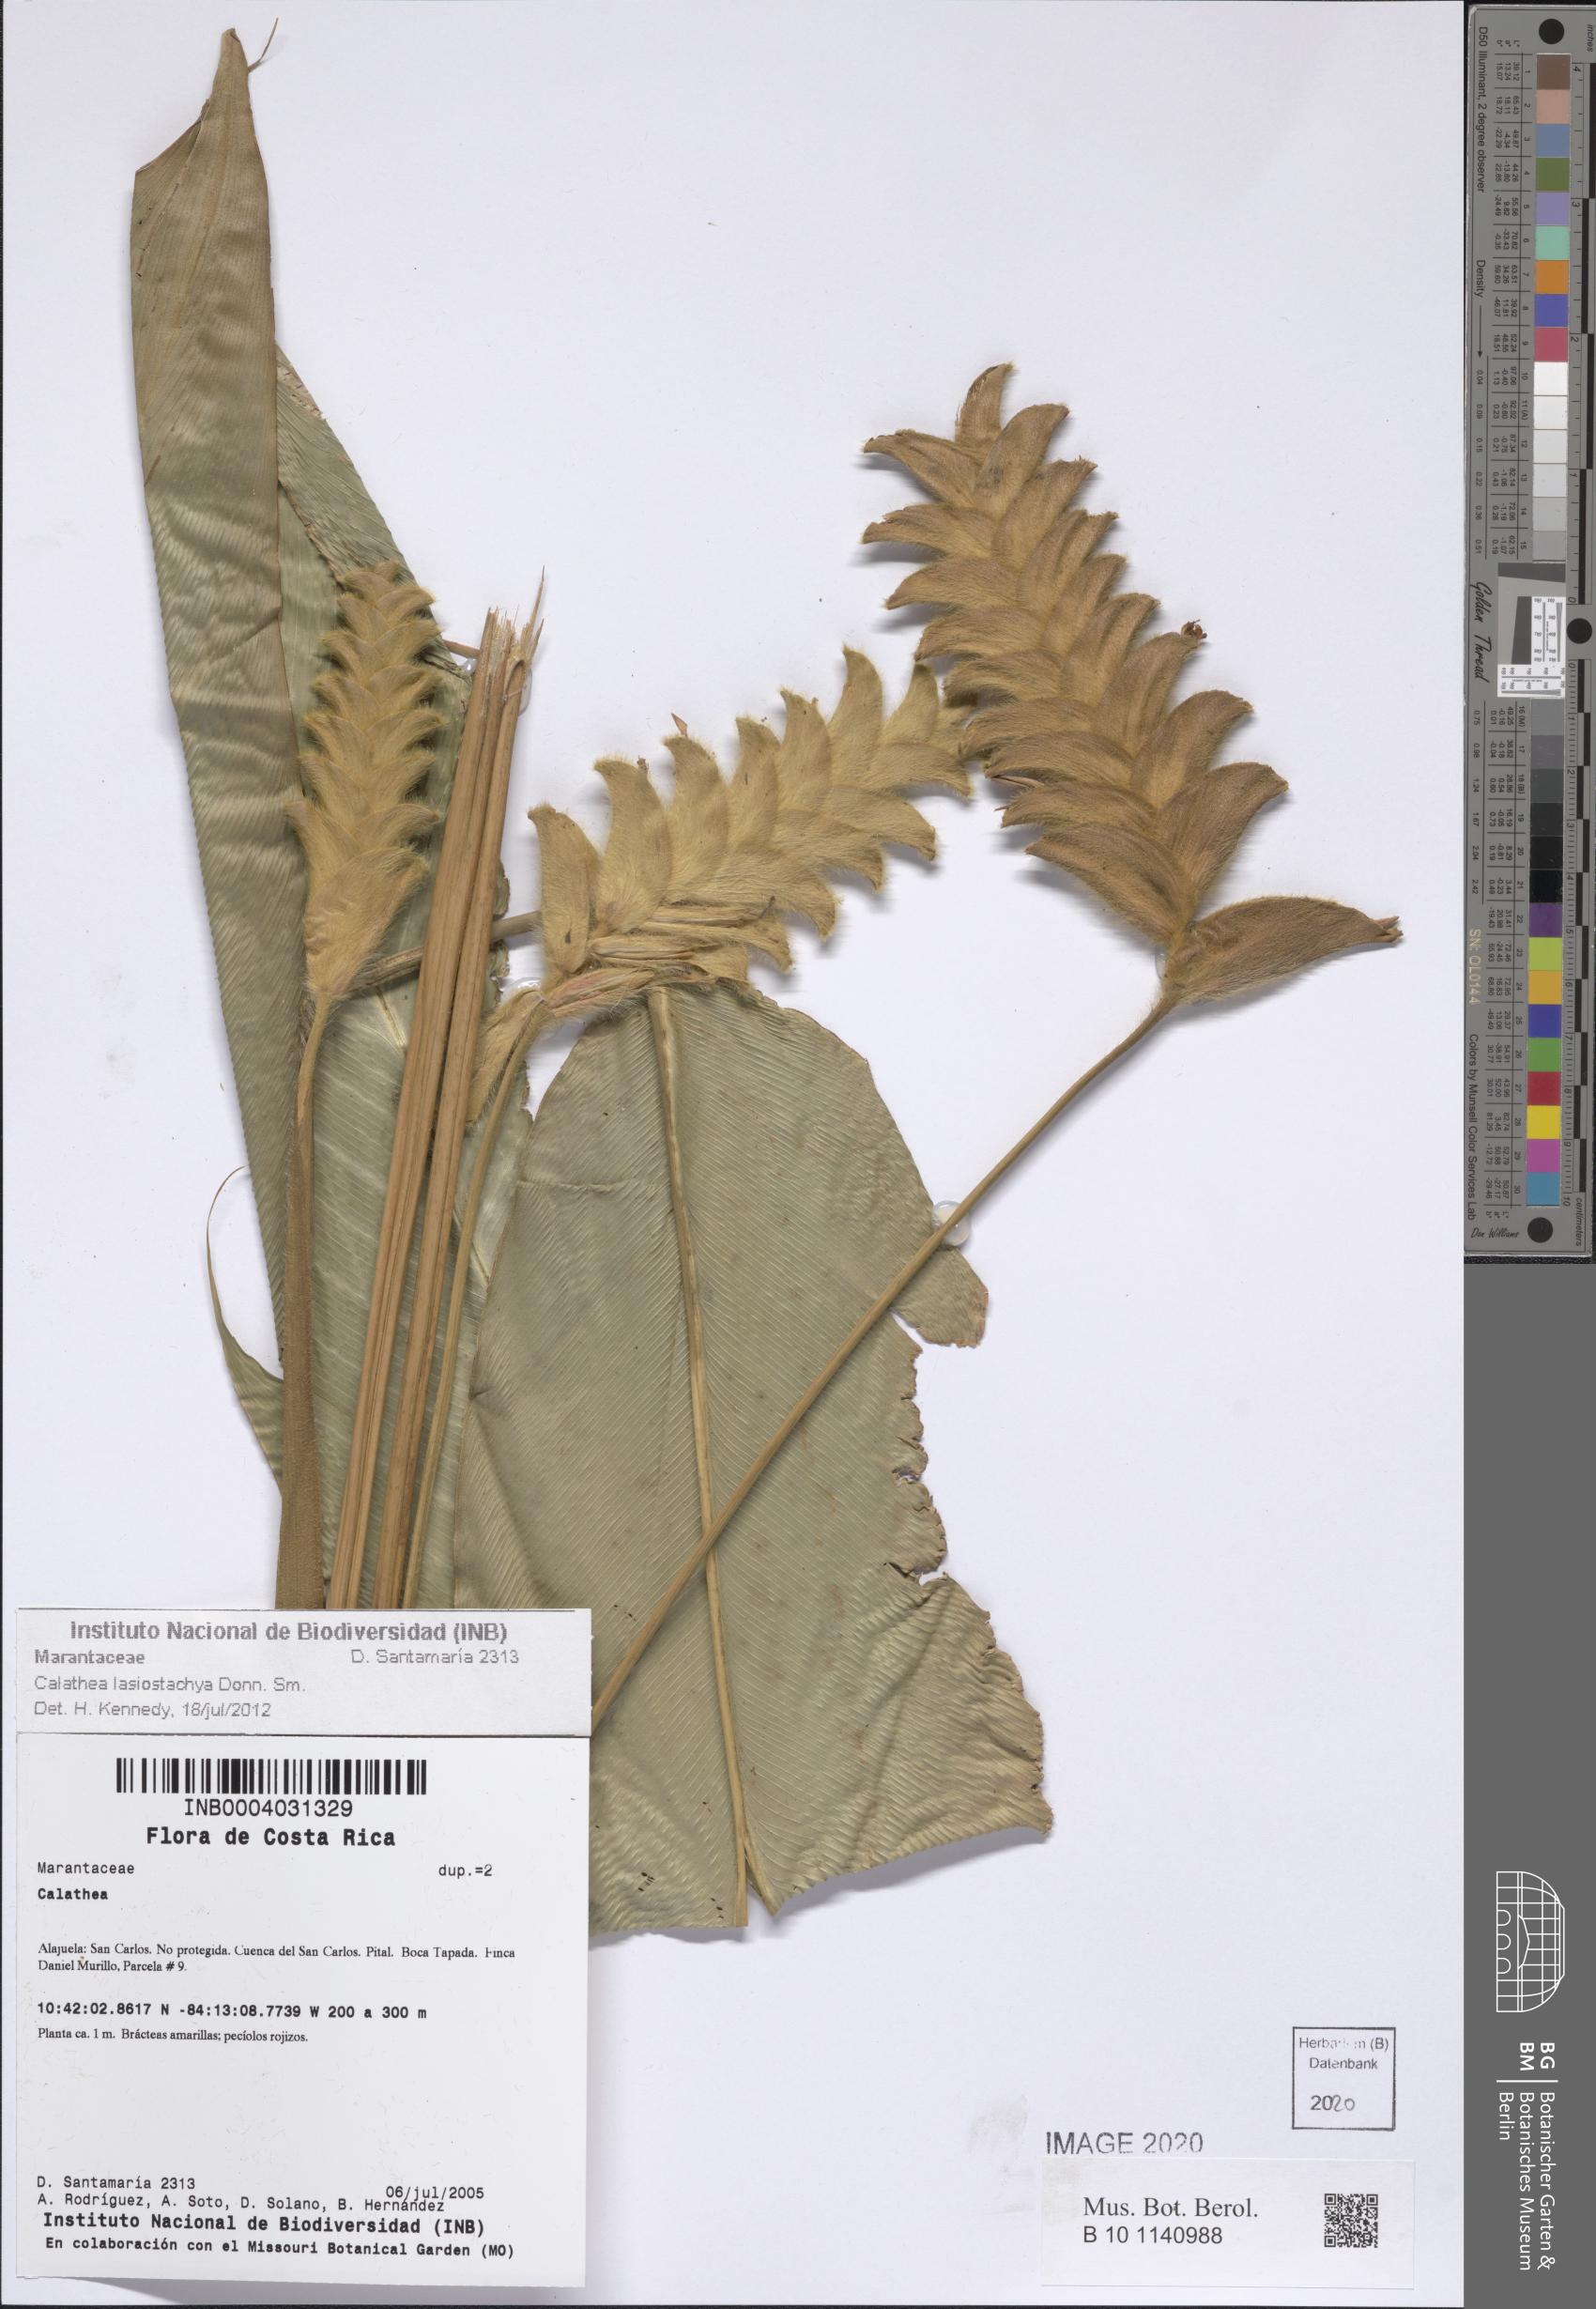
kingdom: Plantae
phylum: Tracheophyta
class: Liliopsida
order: Zingiberales
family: Marantaceae
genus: Calathea
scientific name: Calathea lasiostachya
